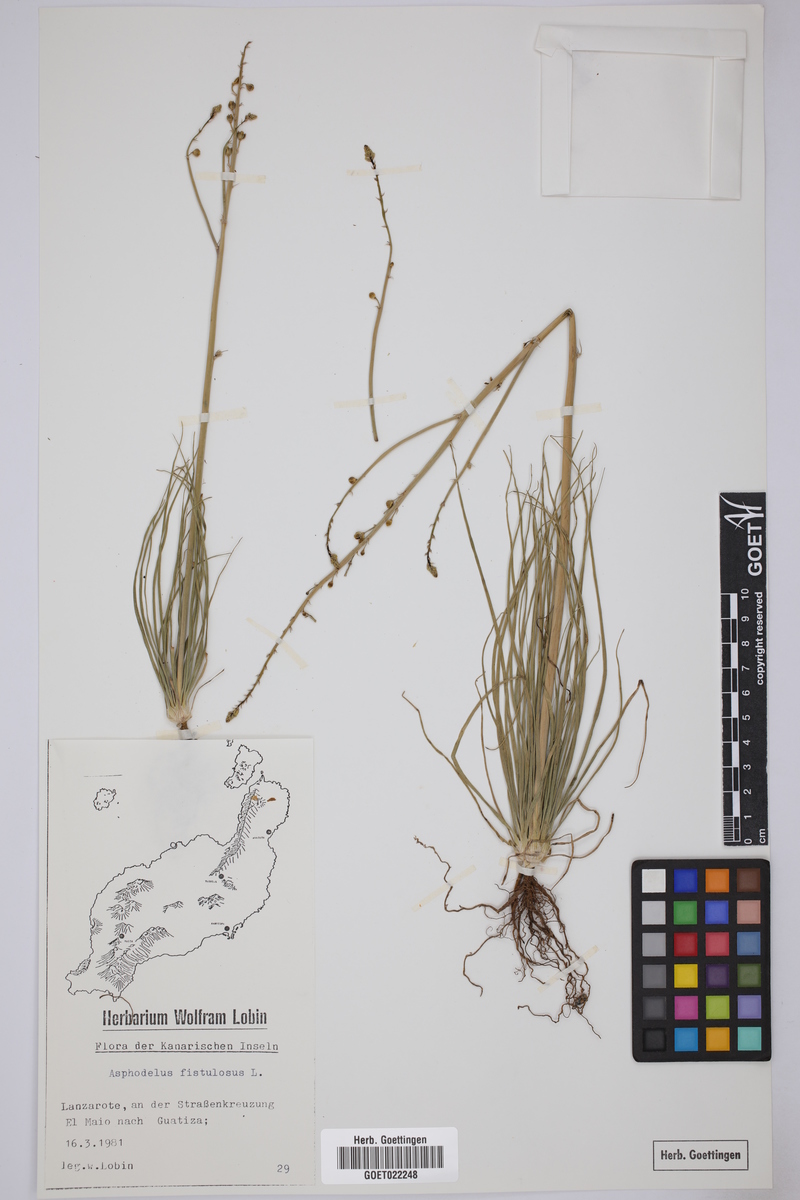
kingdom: Plantae
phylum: Tracheophyta
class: Liliopsida
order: Asparagales
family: Asphodelaceae
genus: Asphodelus
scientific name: Asphodelus fistulosus
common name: Onionweed
